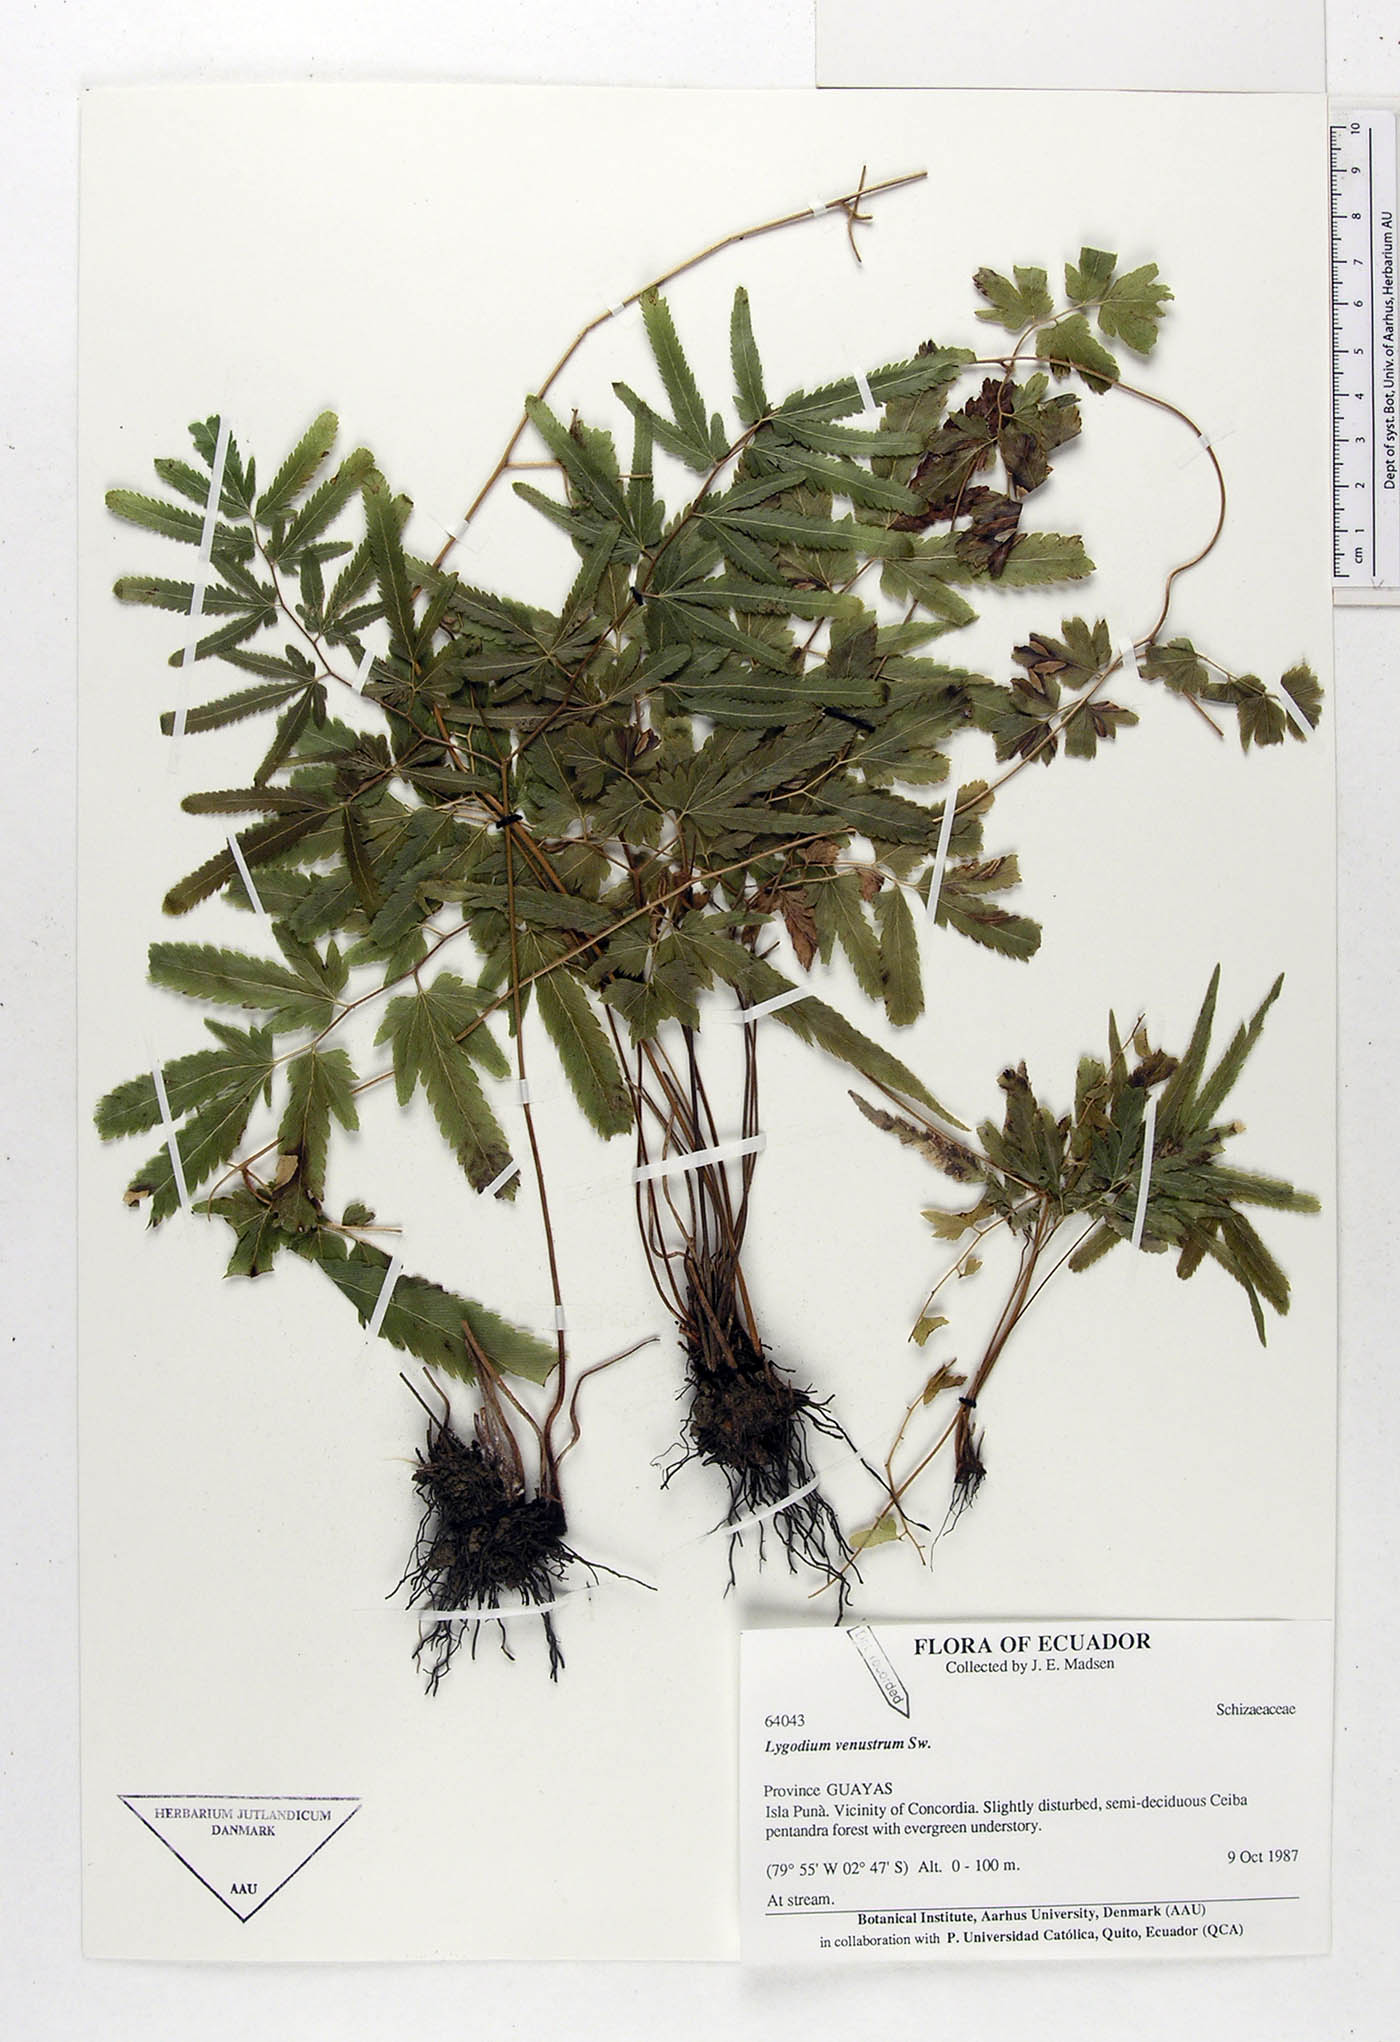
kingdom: Plantae
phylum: Tracheophyta
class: Polypodiopsida
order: Schizaeales
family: Lygodiaceae
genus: Lygodium
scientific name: Lygodium venustum
